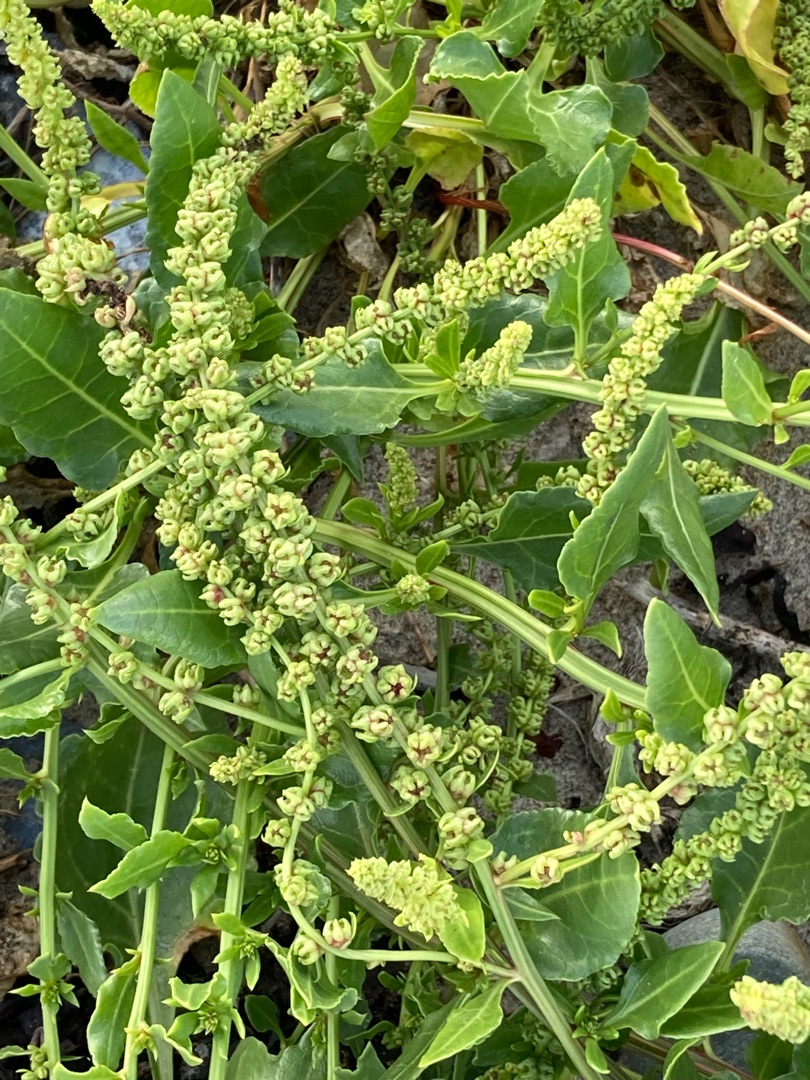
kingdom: Plantae
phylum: Tracheophyta
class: Magnoliopsida
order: Caryophyllales
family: Amaranthaceae
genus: Beta
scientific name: Beta maritima
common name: Strand-bede
